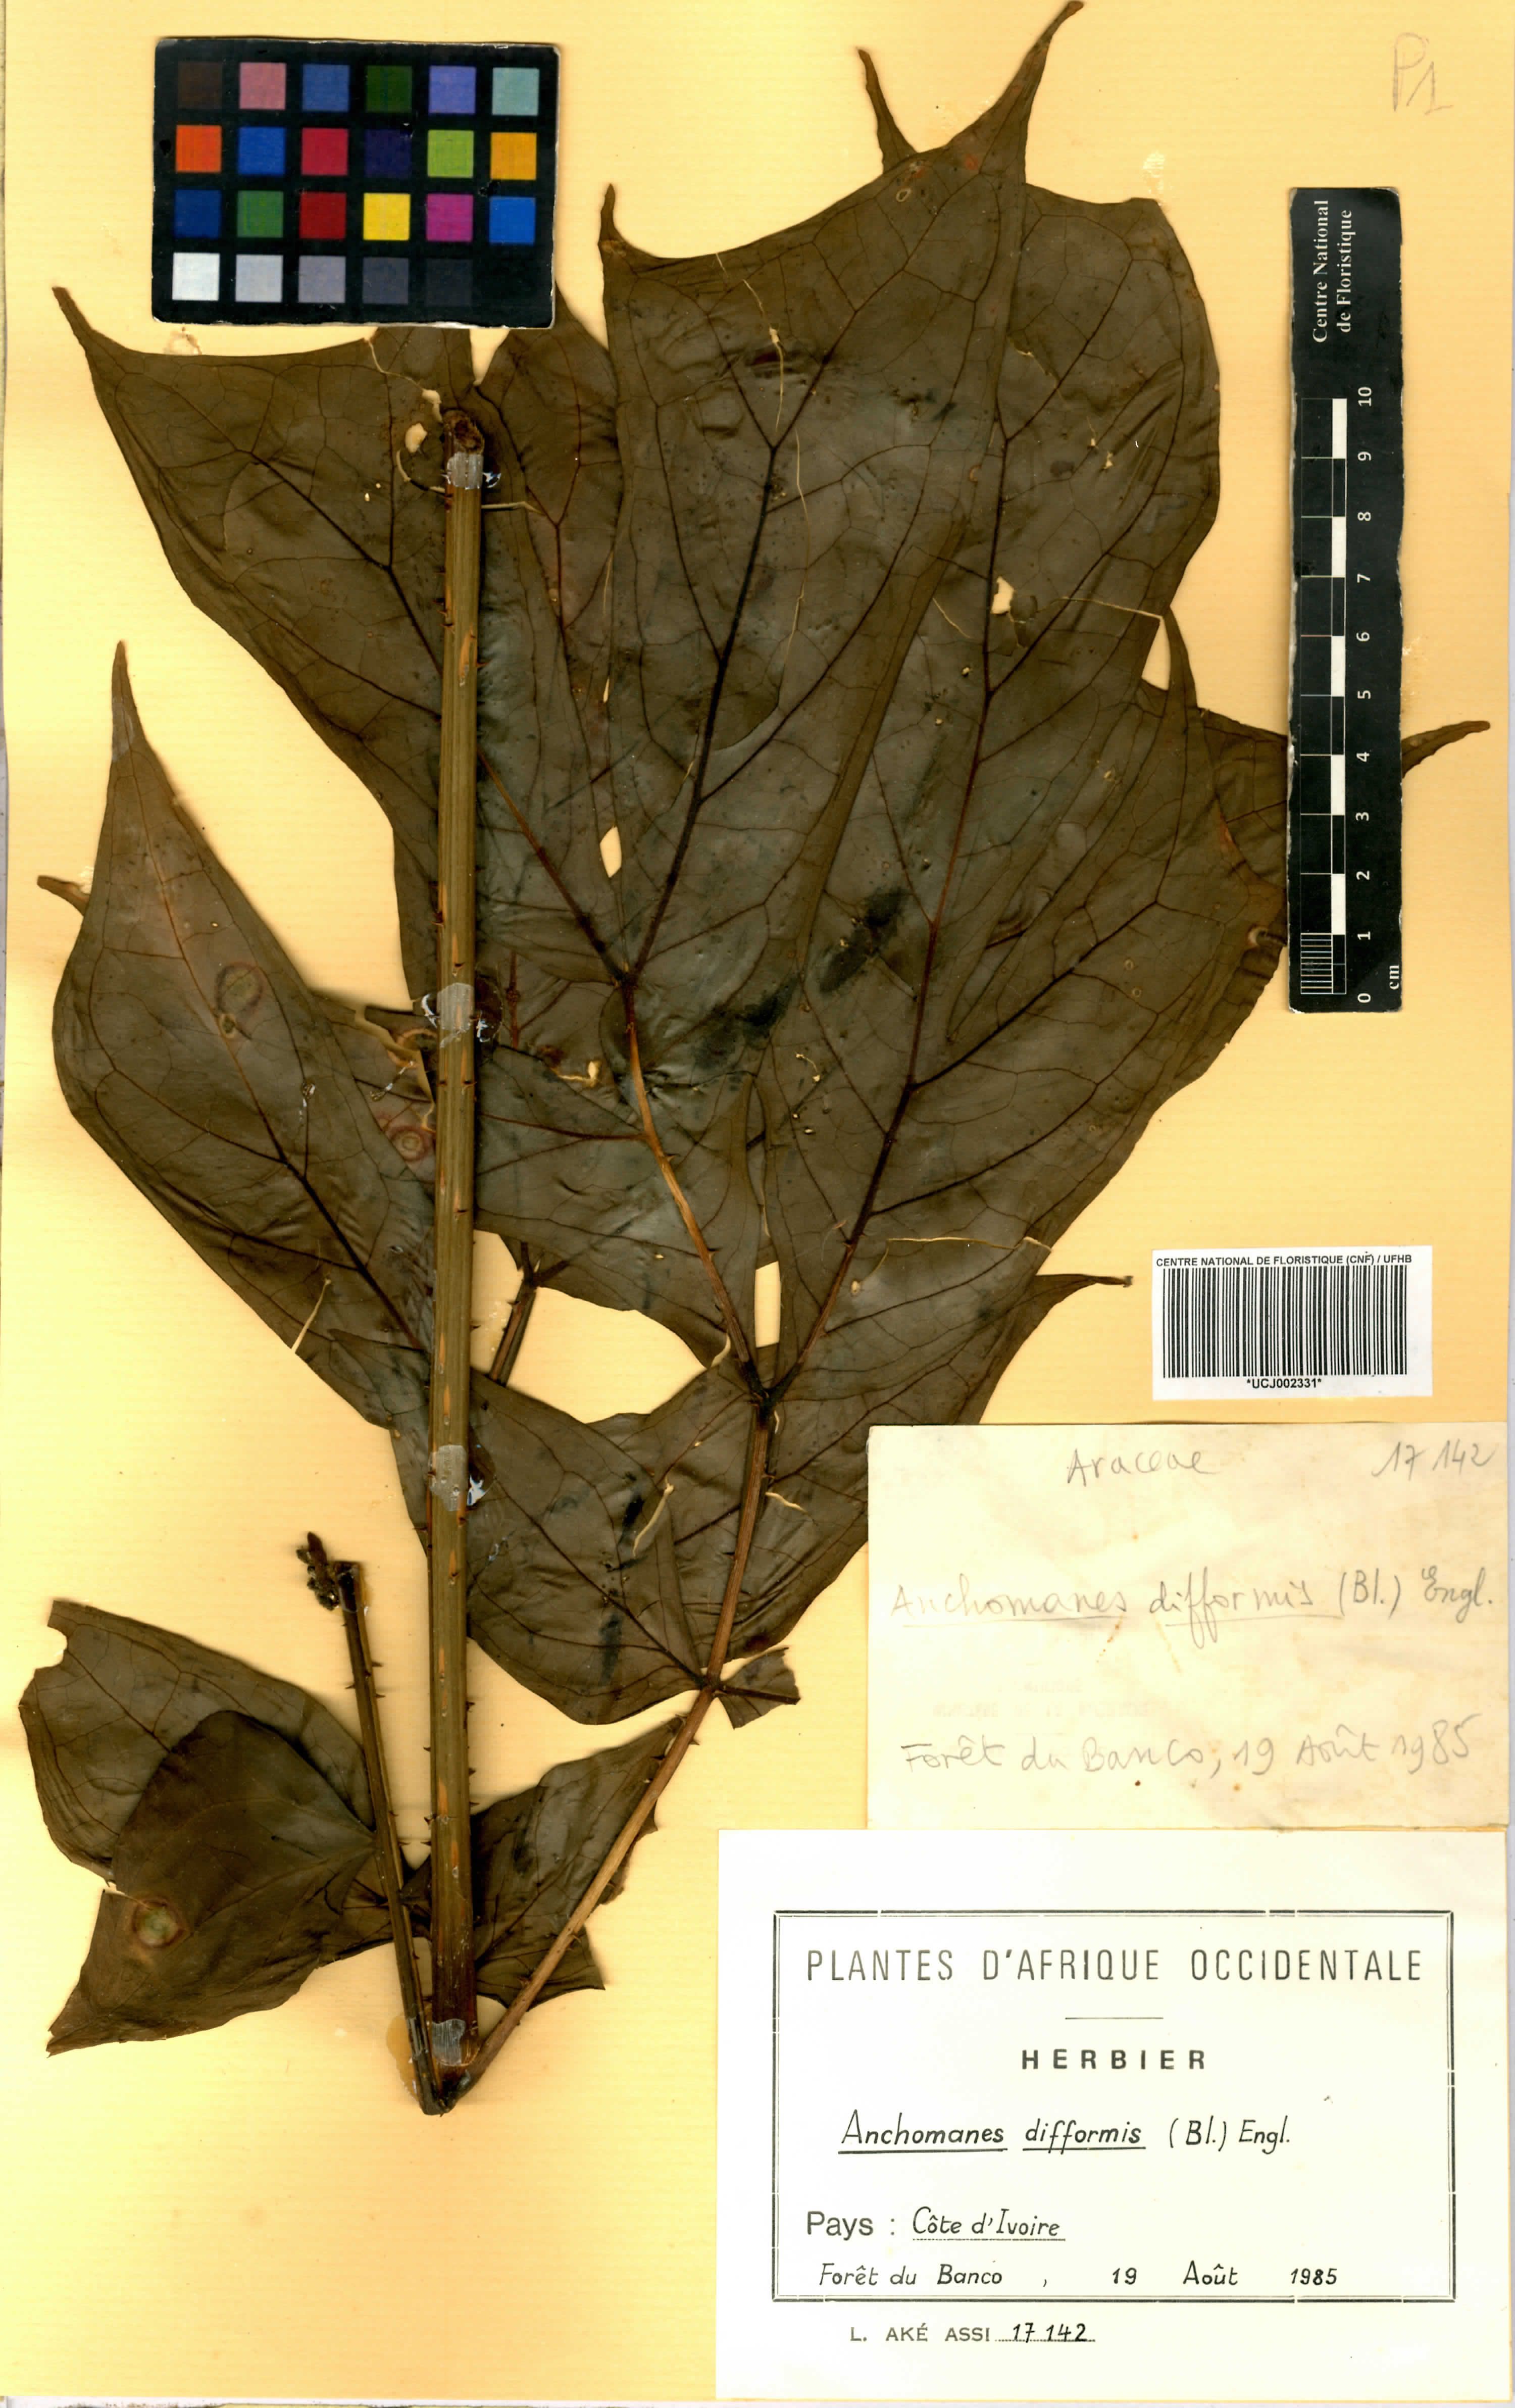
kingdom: Plantae
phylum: Tracheophyta
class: Liliopsida
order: Alismatales
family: Araceae
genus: Anchomanes
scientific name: Anchomanes difformis
